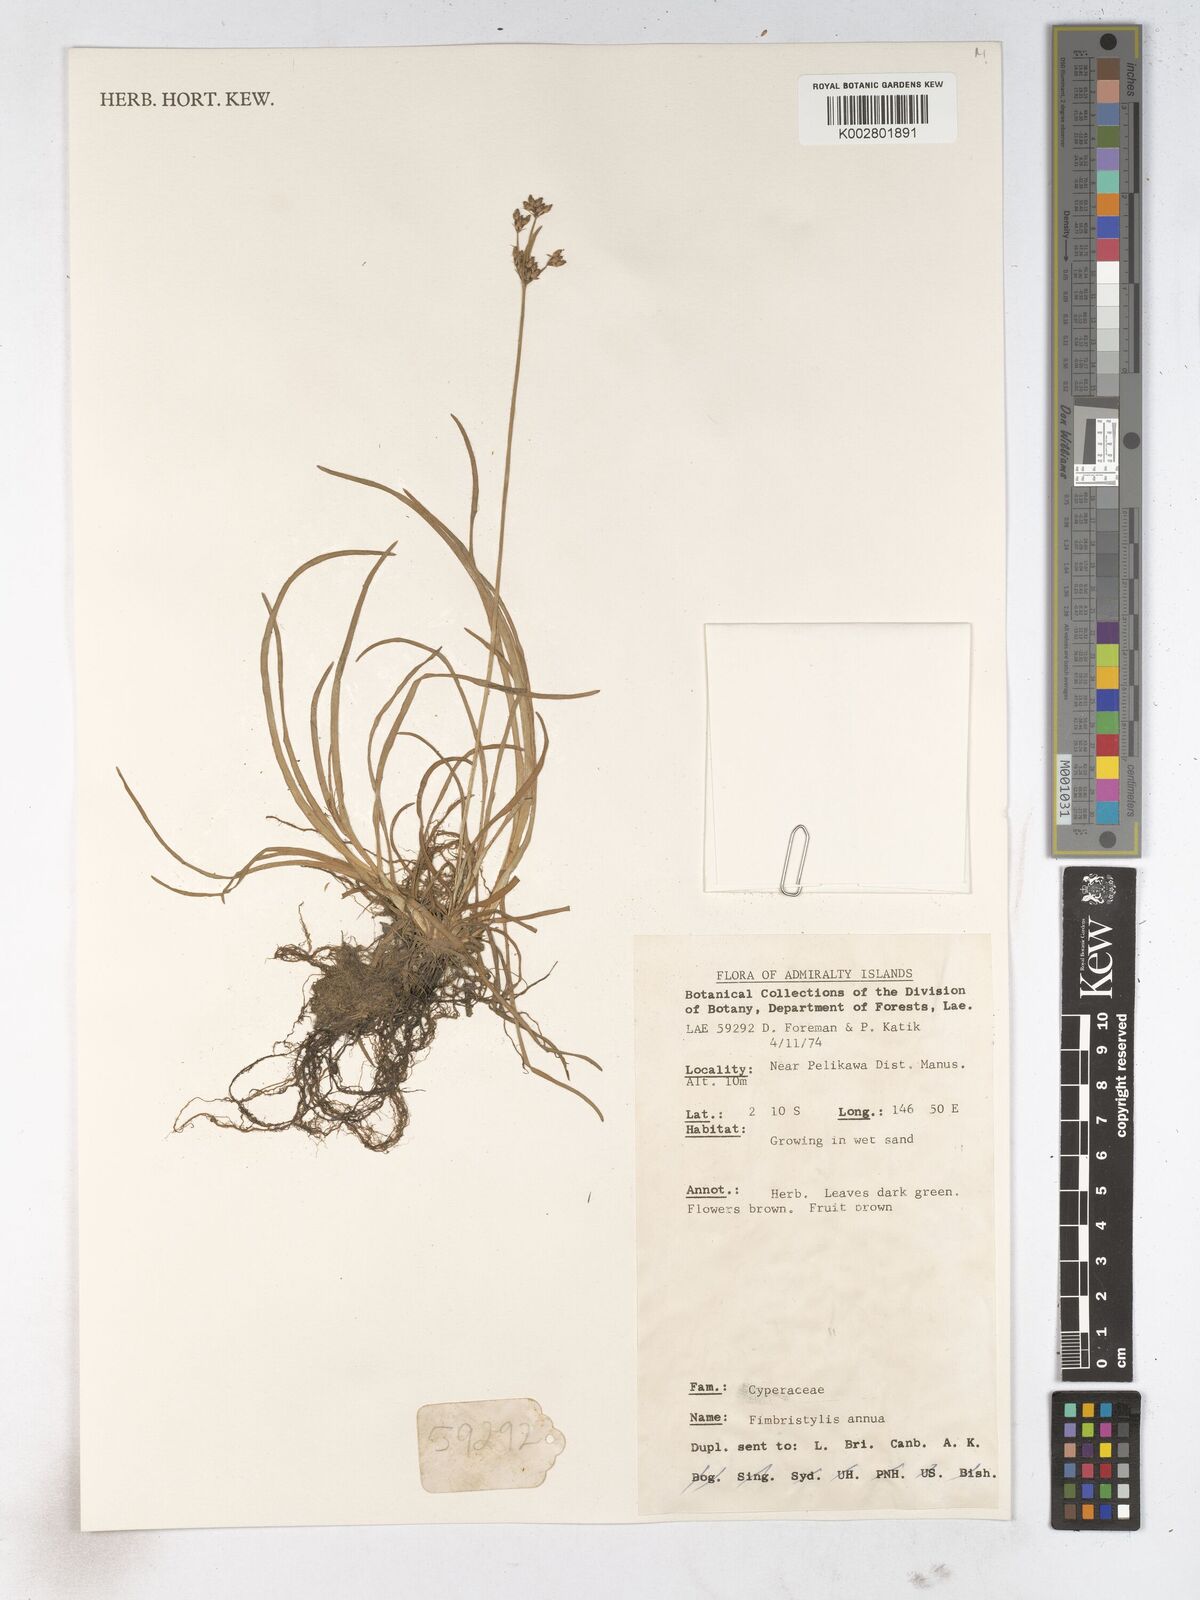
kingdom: Plantae
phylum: Tracheophyta
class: Liliopsida
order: Poales
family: Cyperaceae
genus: Fimbristylis
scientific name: Fimbristylis dichotoma
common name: Forked fimbry
